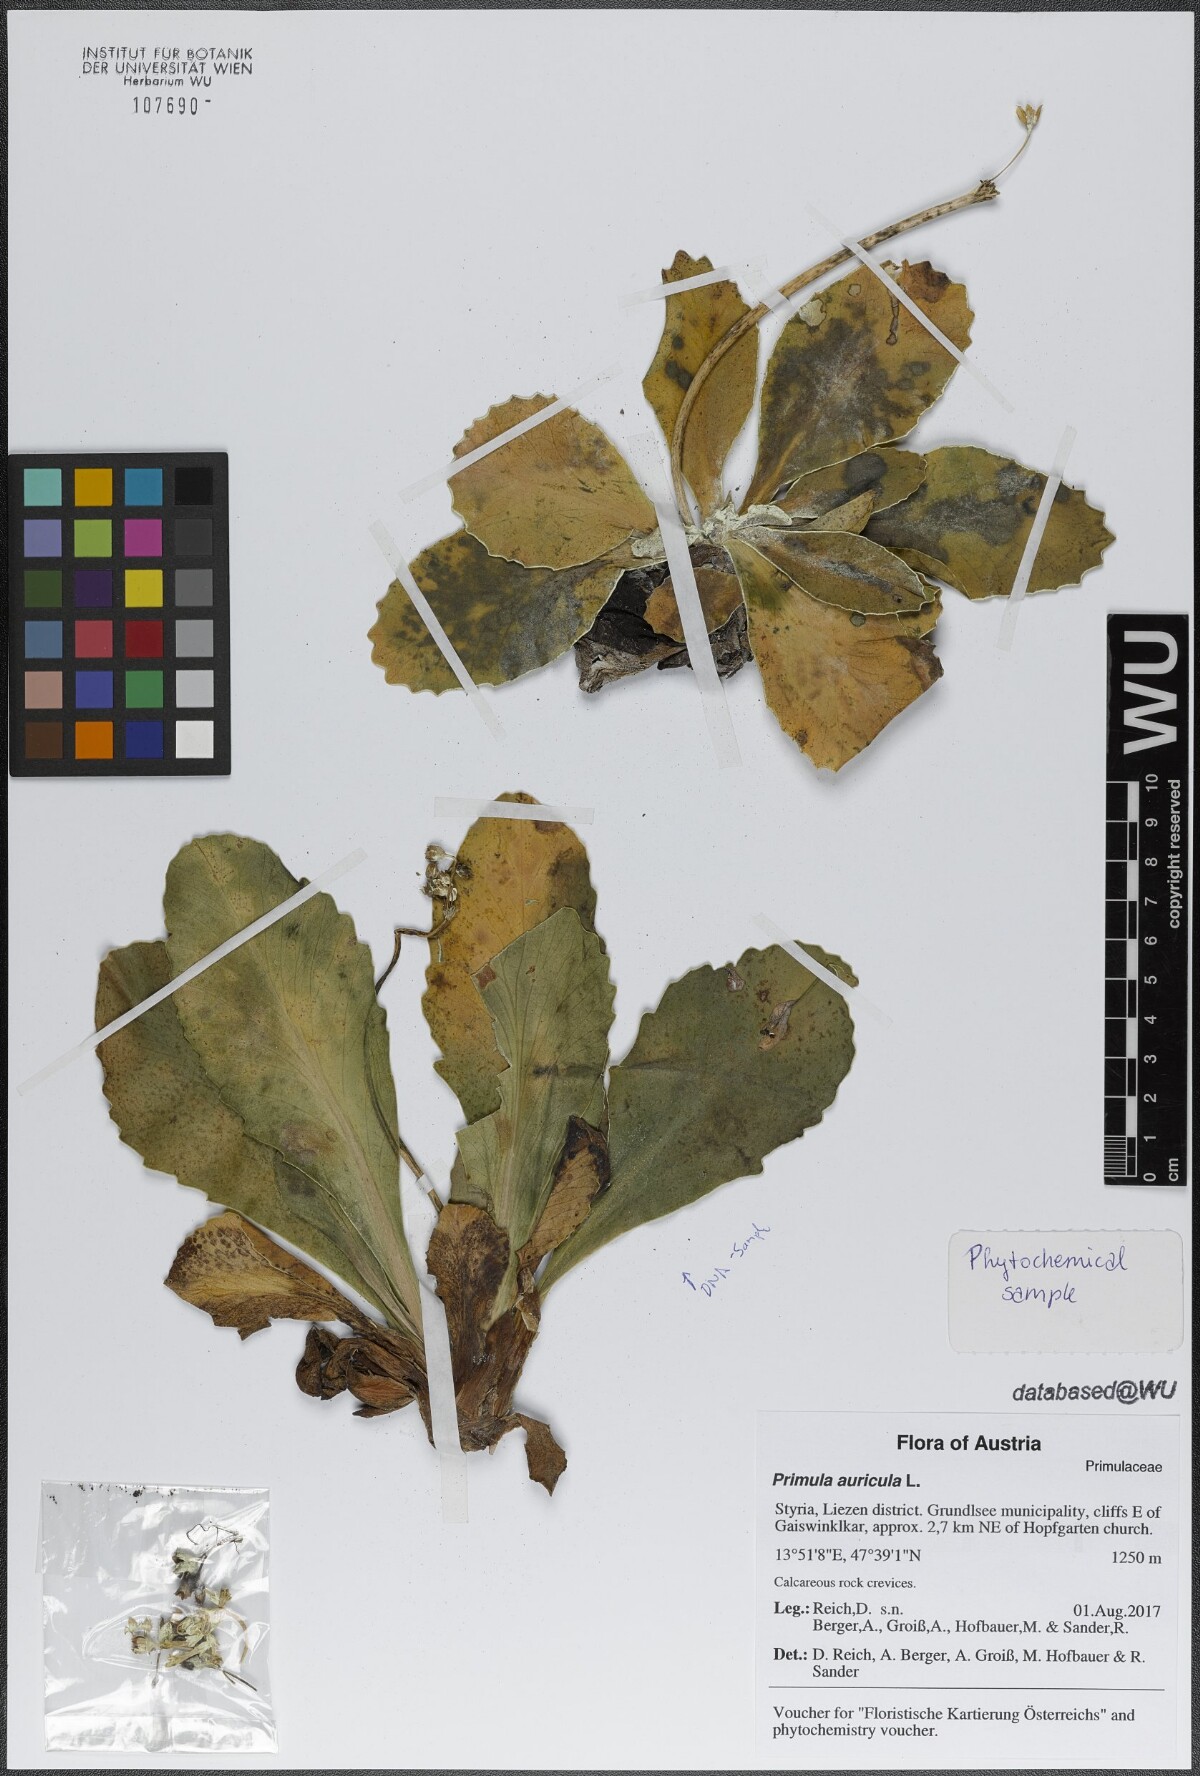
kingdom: Plantae
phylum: Tracheophyta
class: Magnoliopsida
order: Ericales
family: Primulaceae
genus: Primula
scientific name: Primula auricula
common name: Auricula
